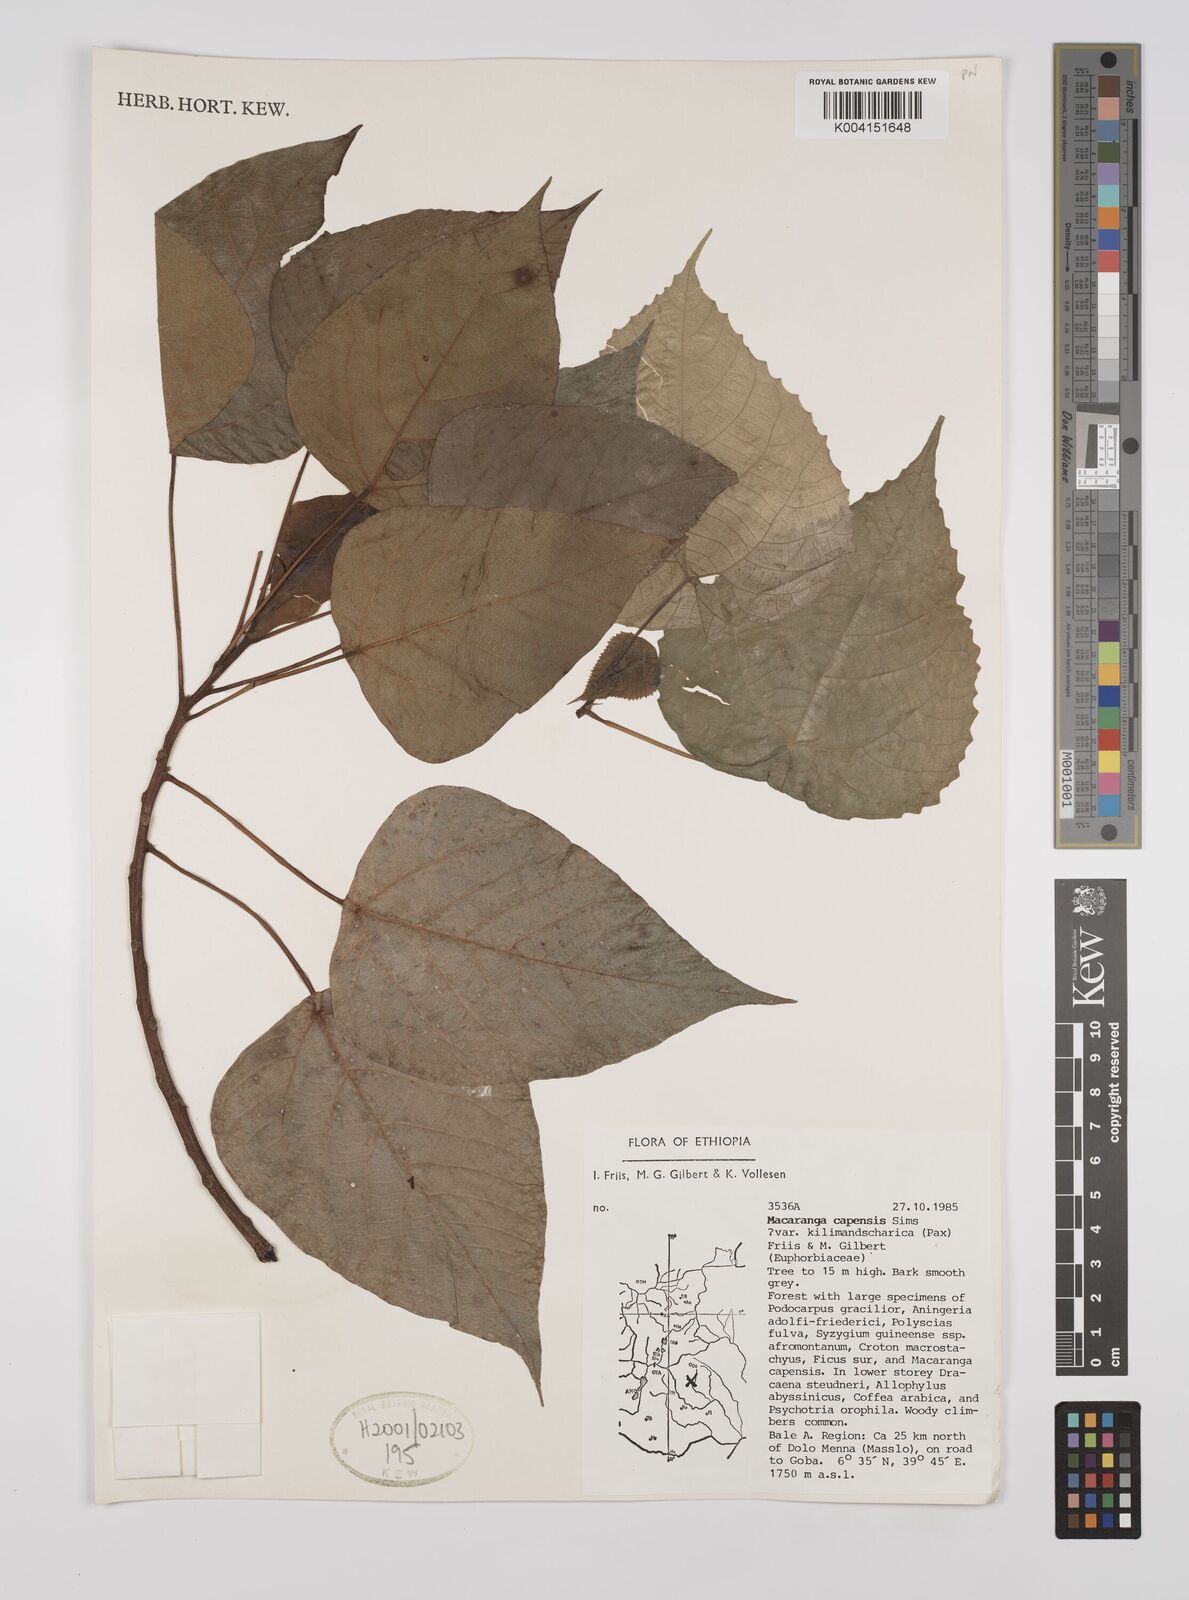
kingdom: Plantae
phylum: Tracheophyta
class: Magnoliopsida
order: Malpighiales
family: Euphorbiaceae
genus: Macaranga
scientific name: Macaranga capensis
